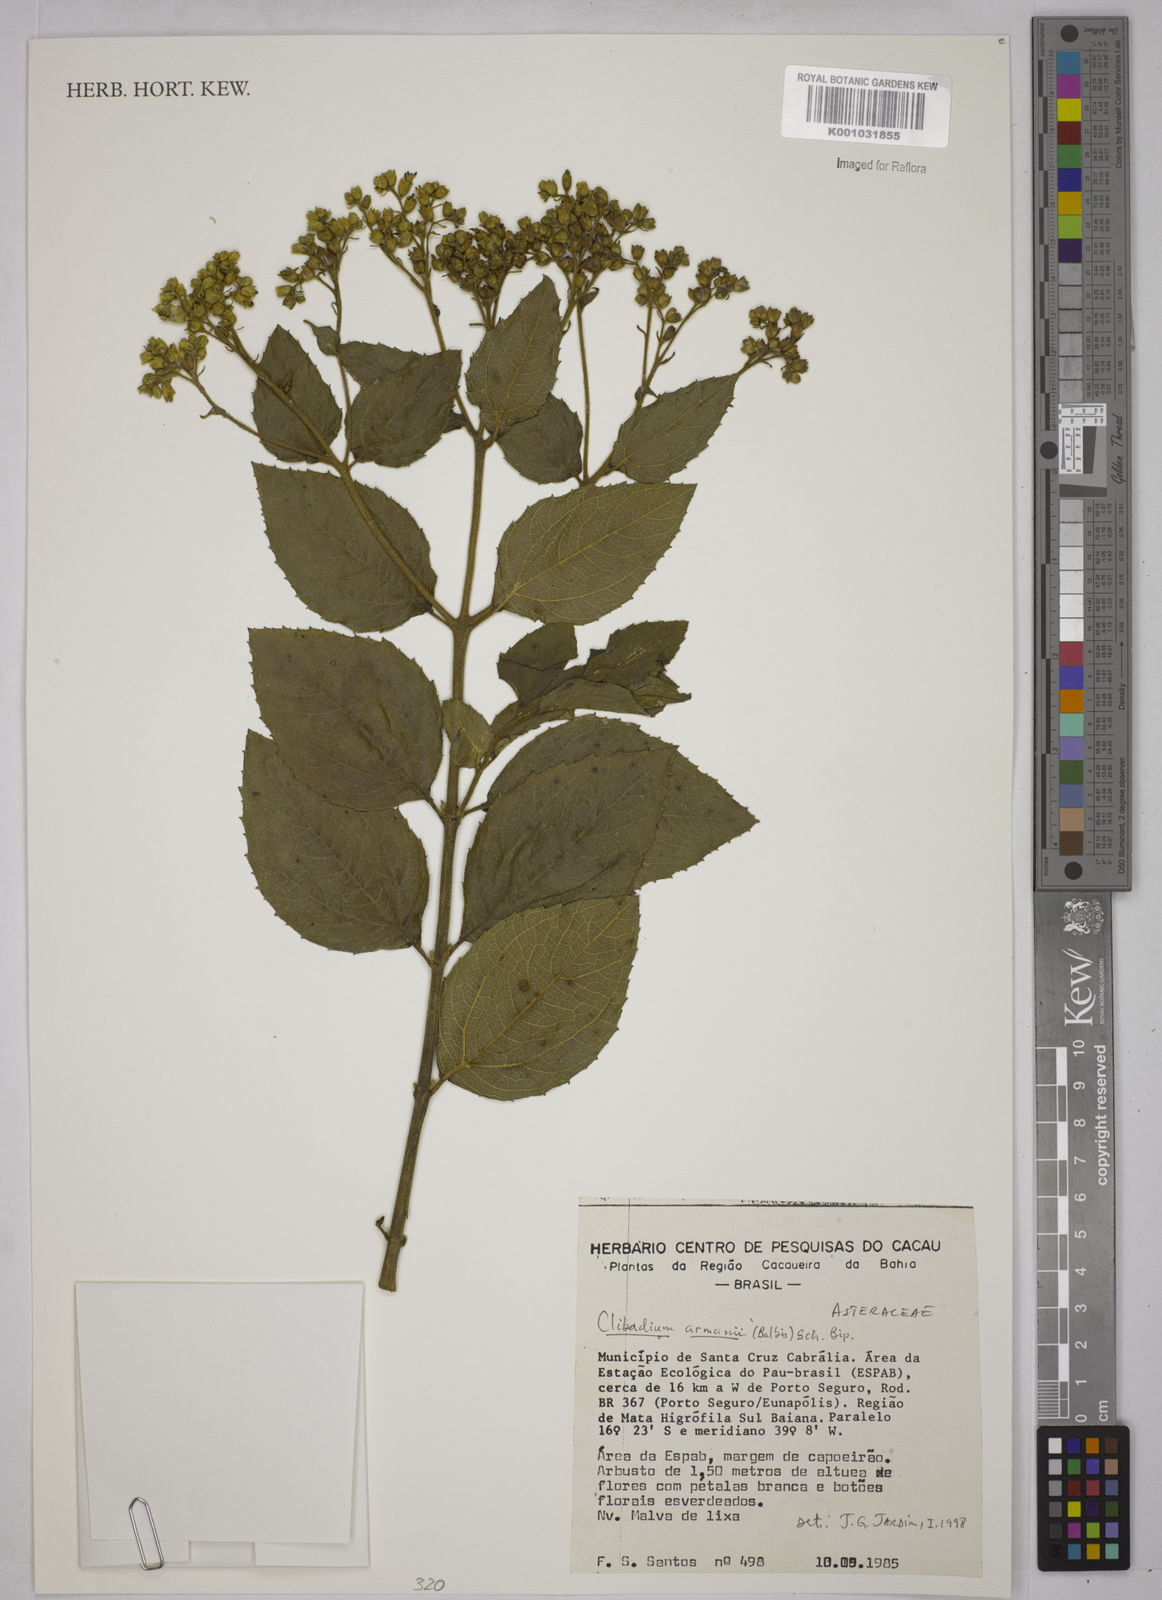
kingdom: Plantae
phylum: Tracheophyta
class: Magnoliopsida
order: Asterales
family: Asteraceae
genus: Clibadium
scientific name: Clibadium armanii
